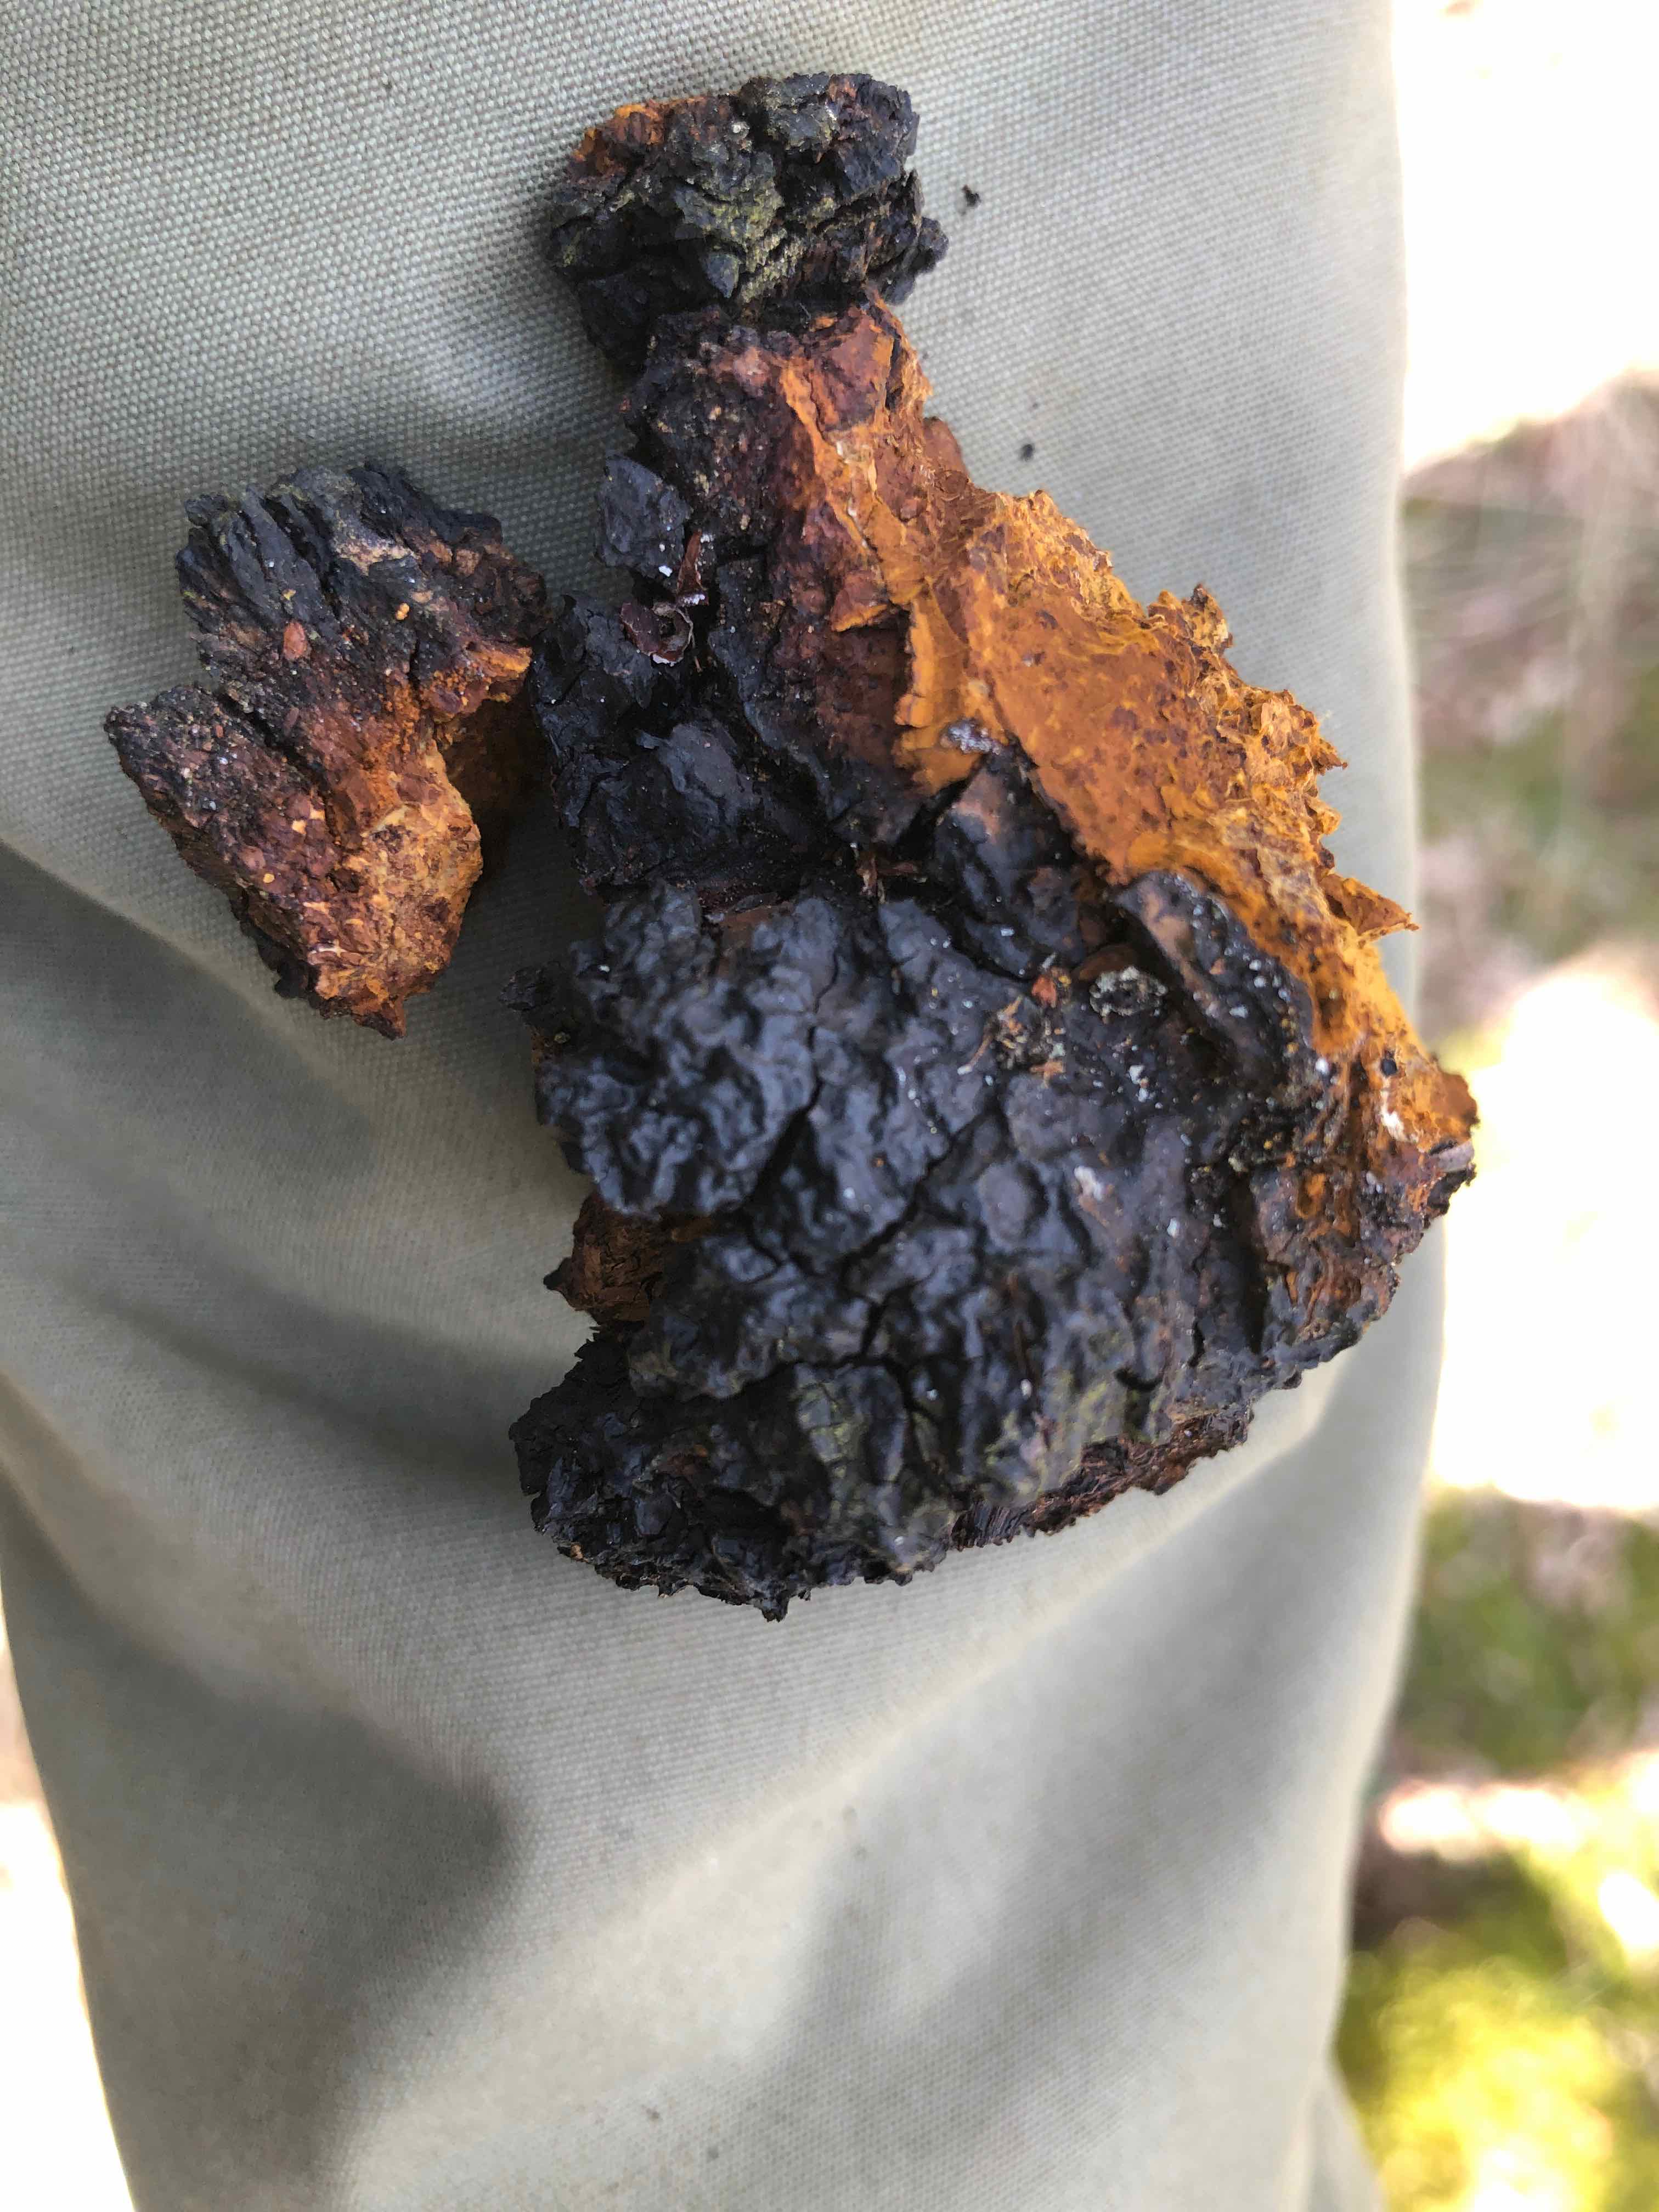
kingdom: Fungi
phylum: Basidiomycota
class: Agaricomycetes
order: Hymenochaetales
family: Hymenochaetaceae
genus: Inonotus
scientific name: Inonotus obliquus
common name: birke-spejlporesvamp
